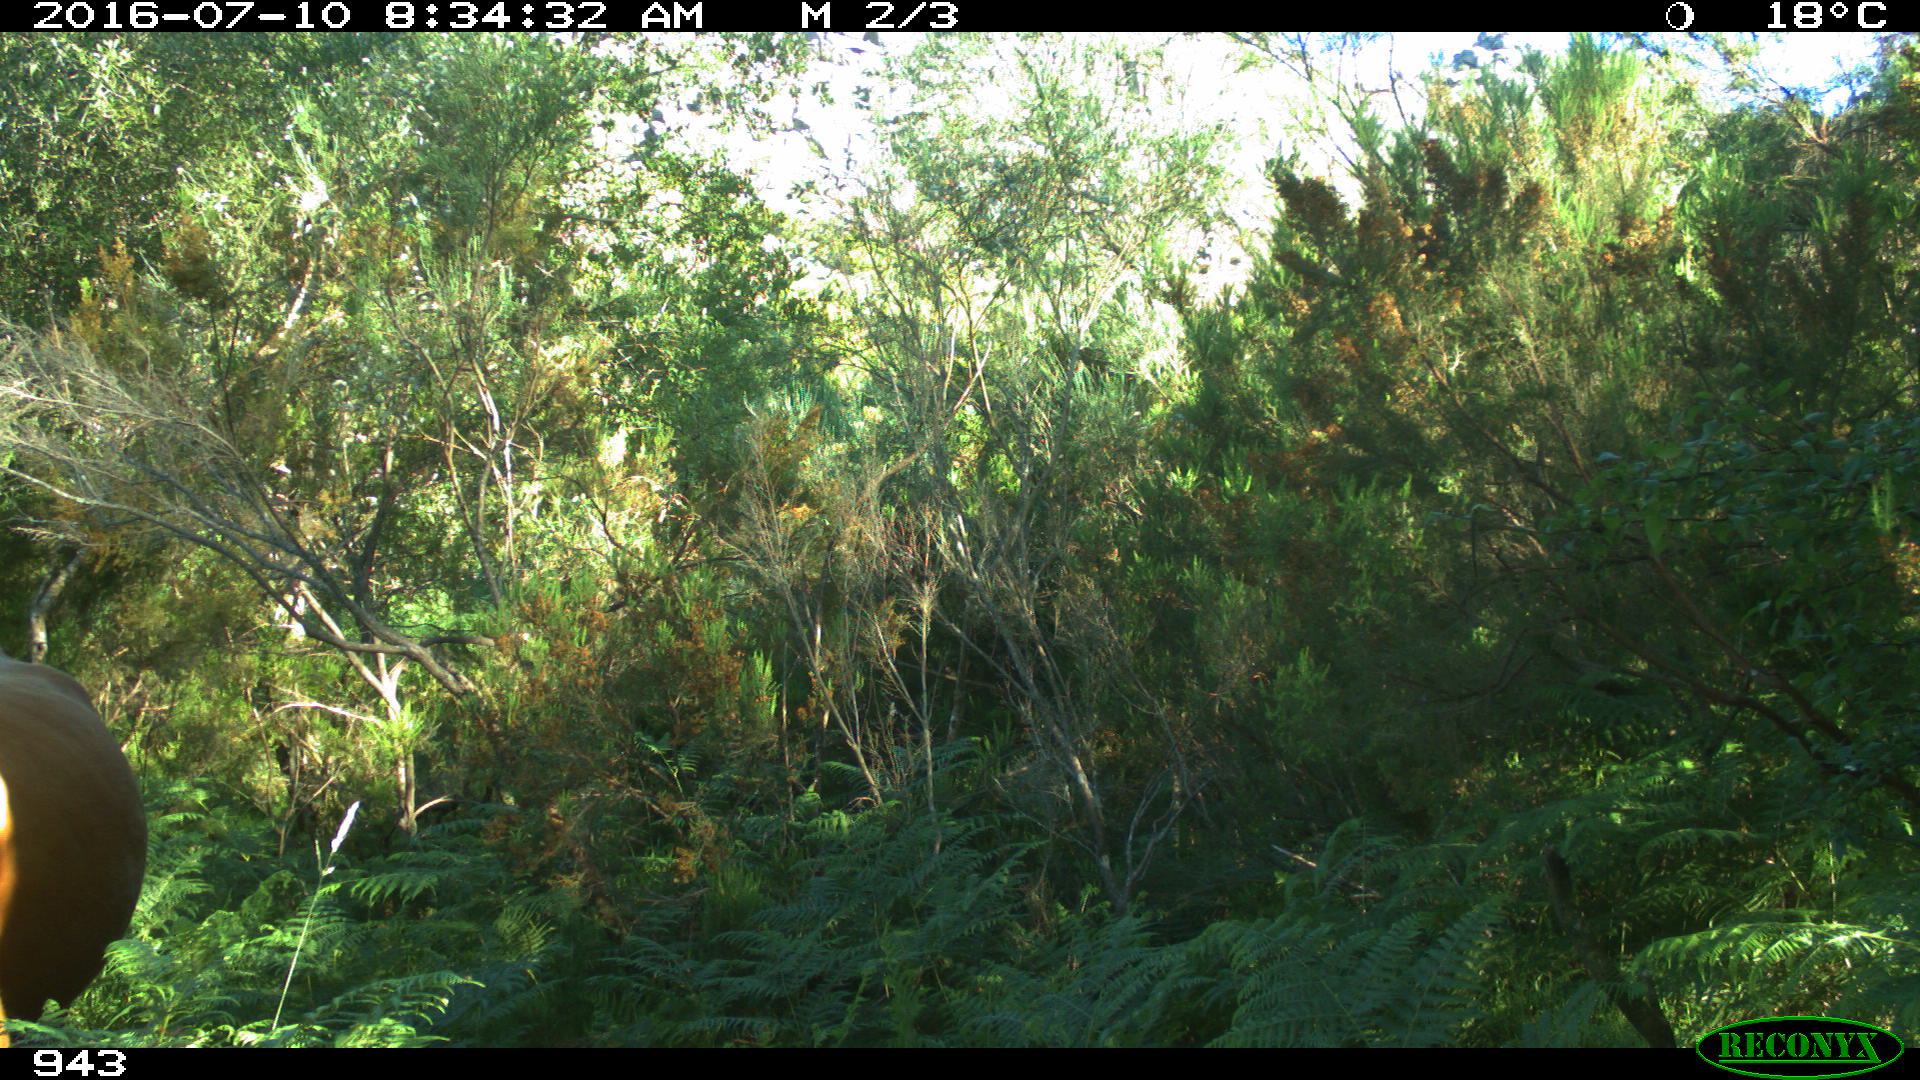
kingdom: Animalia
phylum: Chordata
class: Mammalia
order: Artiodactyla
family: Bovidae
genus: Bos
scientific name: Bos taurus
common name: Domesticated cattle
